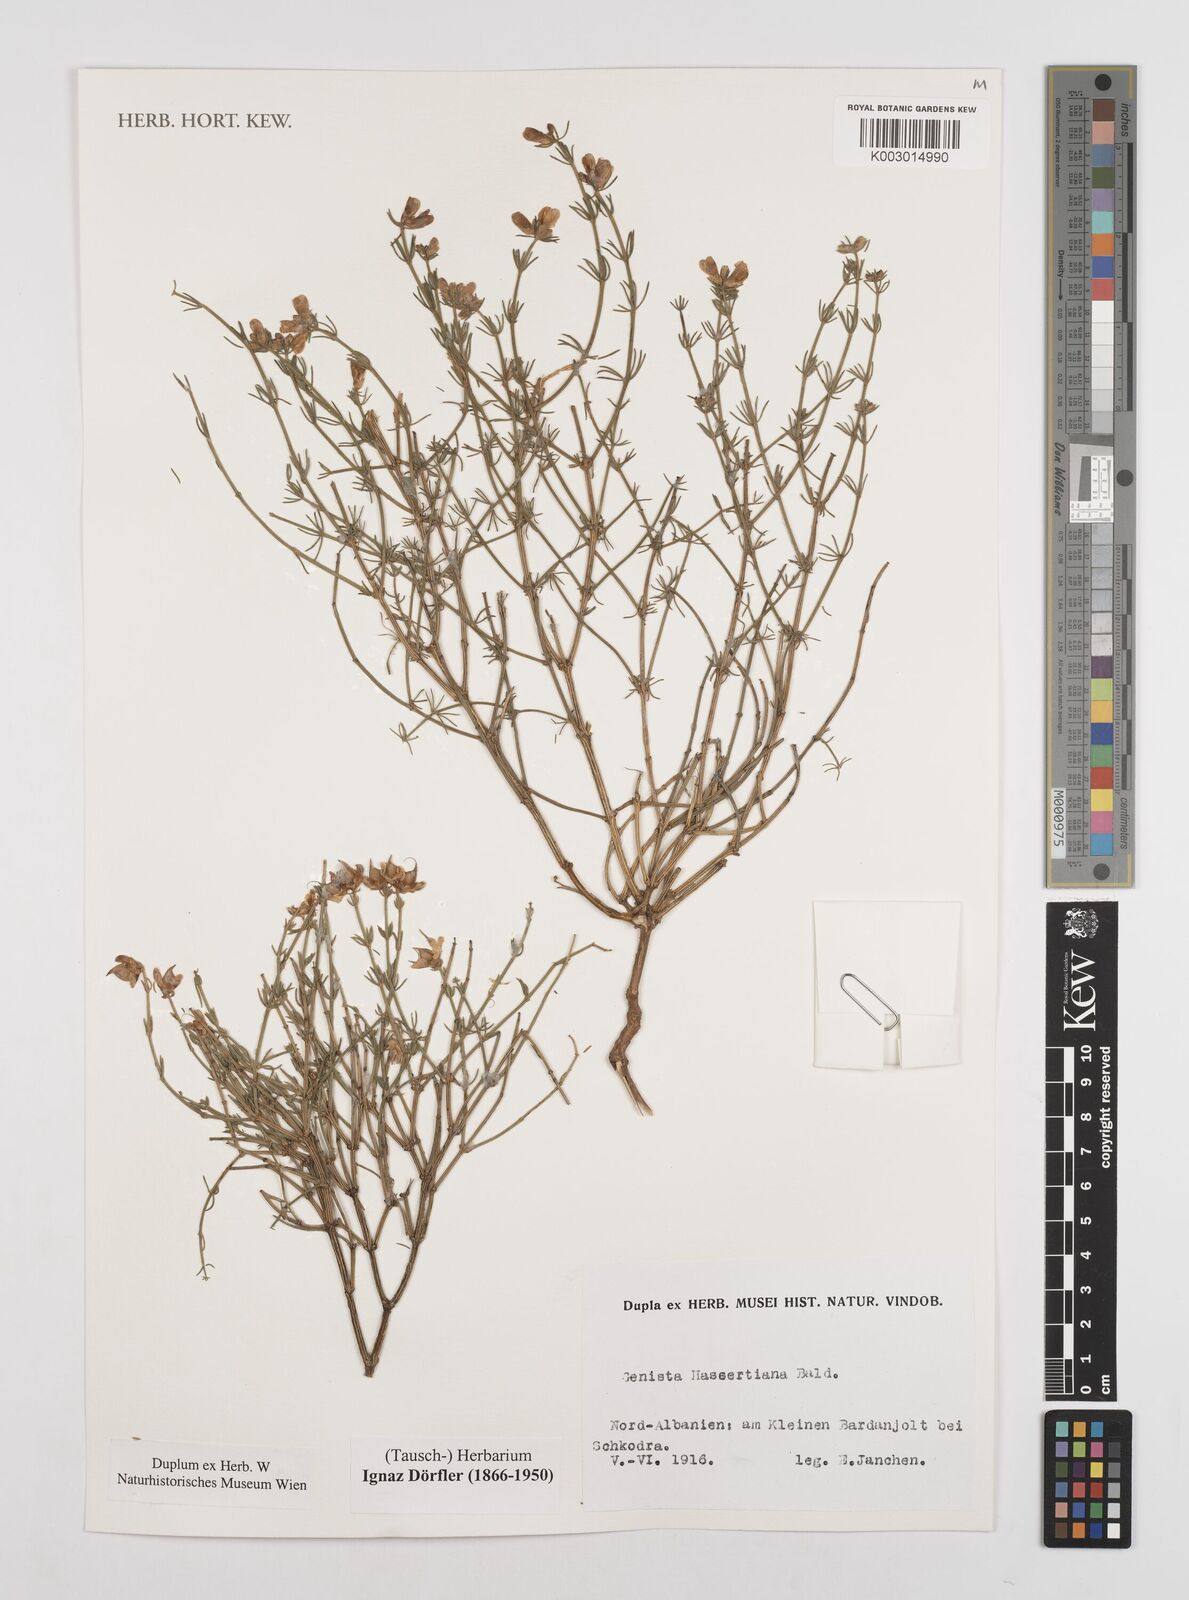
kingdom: Plantae
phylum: Tracheophyta
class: Magnoliopsida
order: Fabales
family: Fabaceae
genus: Genista
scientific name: Genista hassertiana
